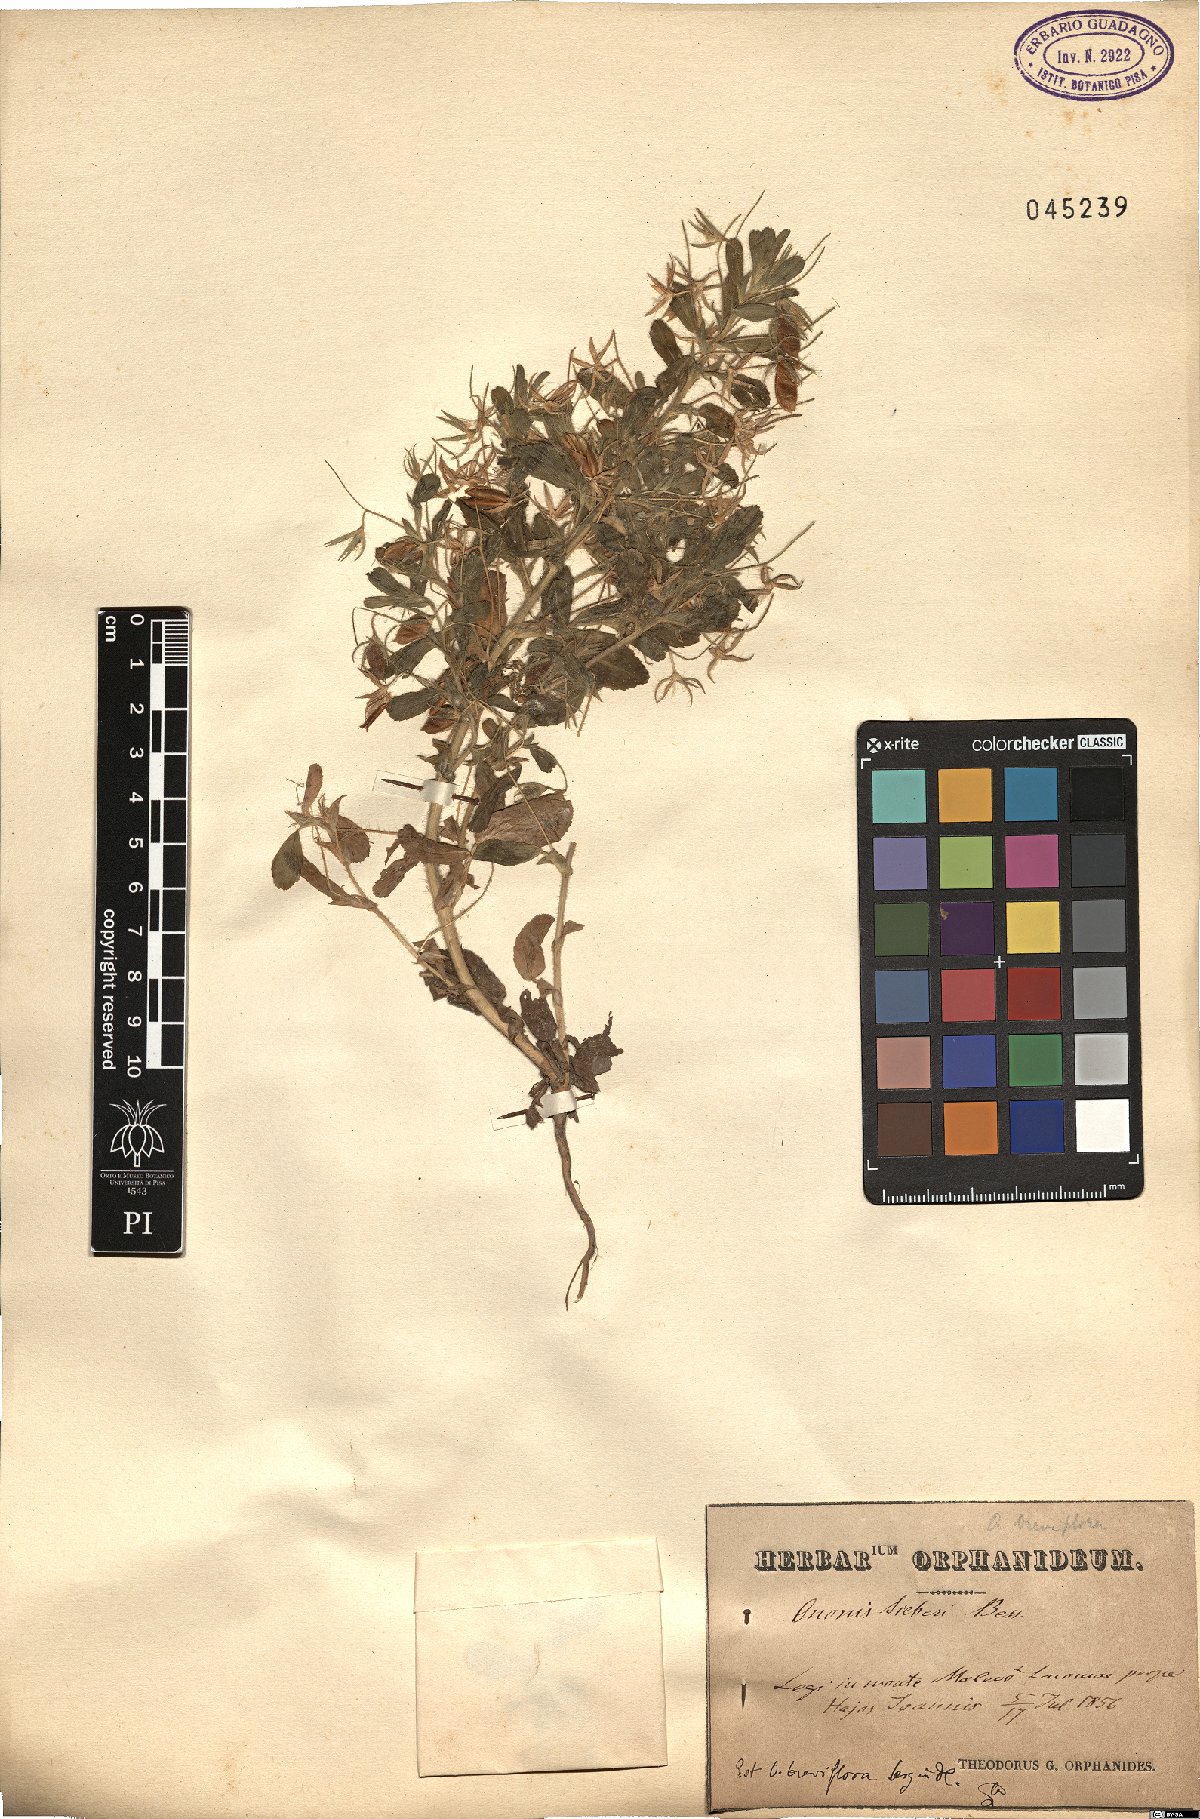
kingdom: Plantae
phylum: Tracheophyta
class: Magnoliopsida
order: Fabales
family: Fabaceae
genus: Ononis
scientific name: Ononis sieberi
